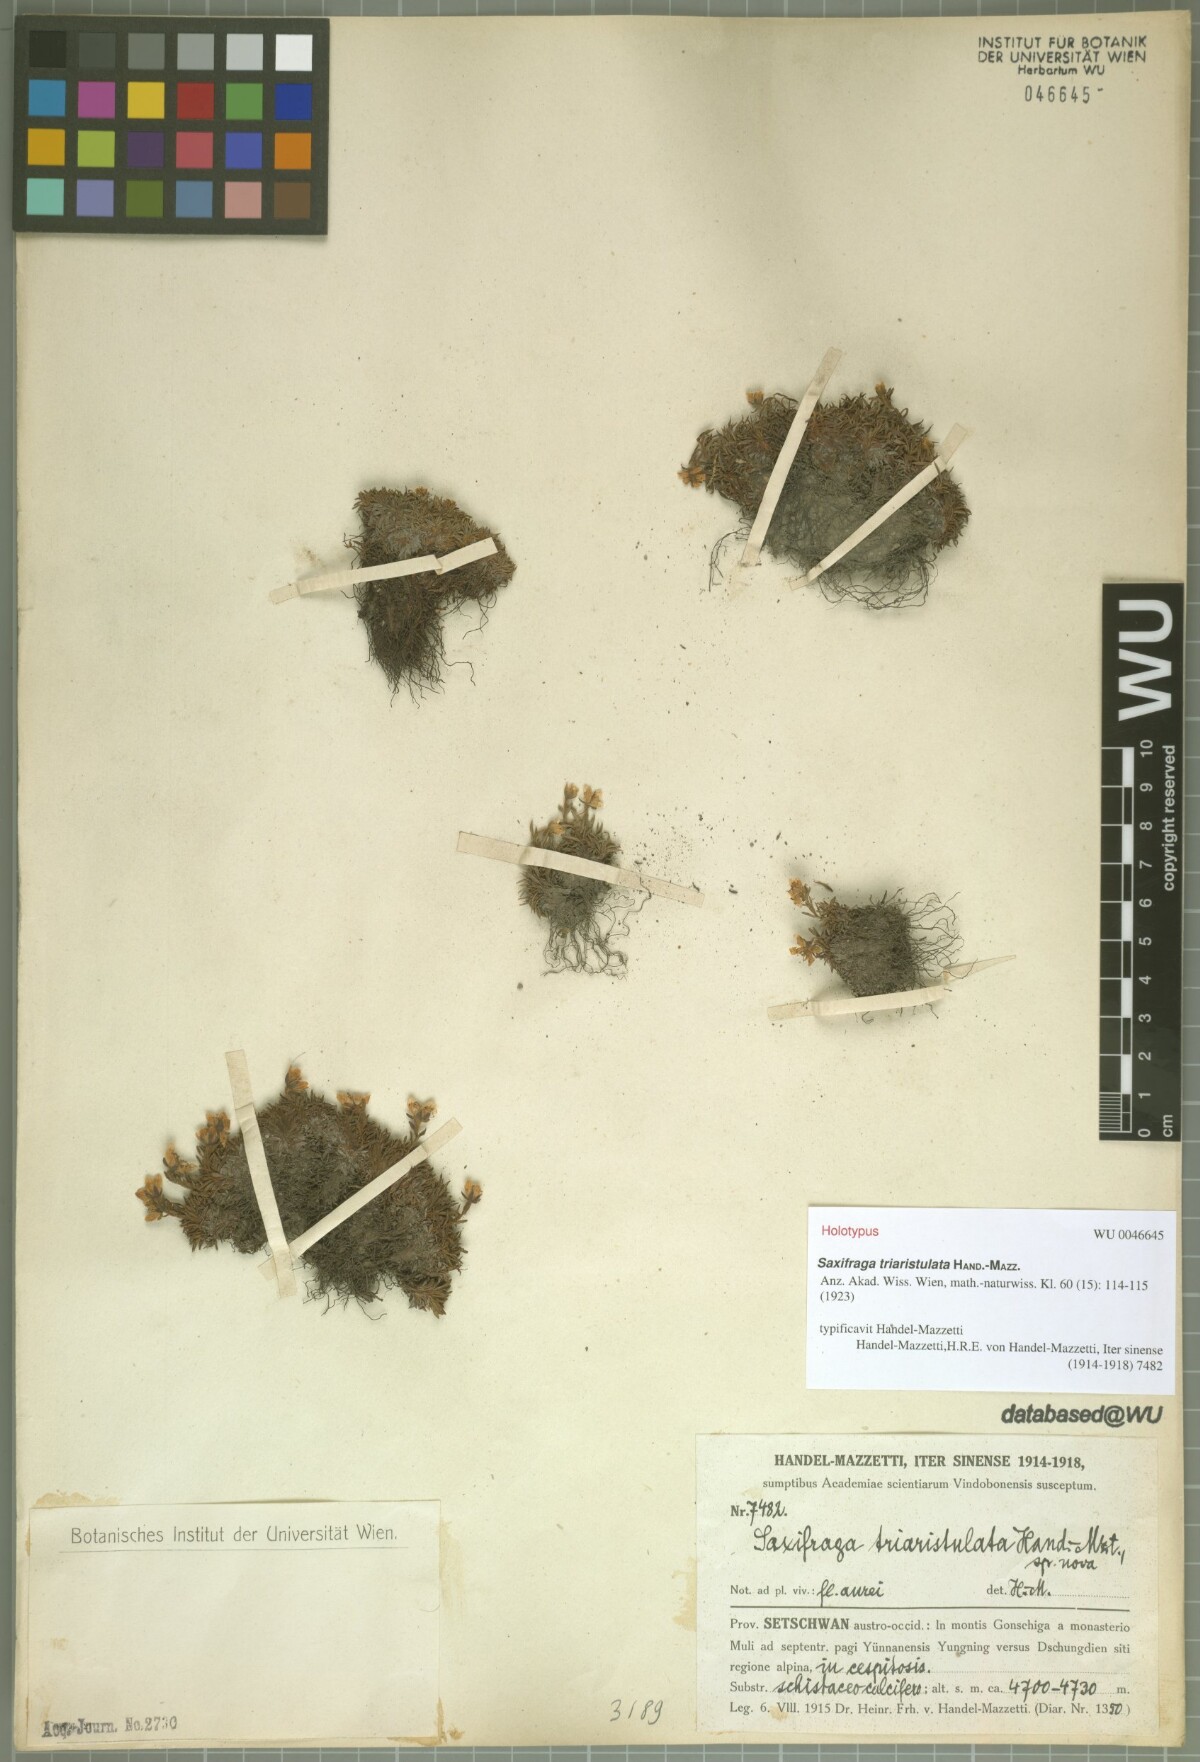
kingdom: Plantae
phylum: Tracheophyta
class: Magnoliopsida
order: Saxifragales
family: Saxifragaceae
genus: Saxifraga
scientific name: Saxifraga triaristulata
